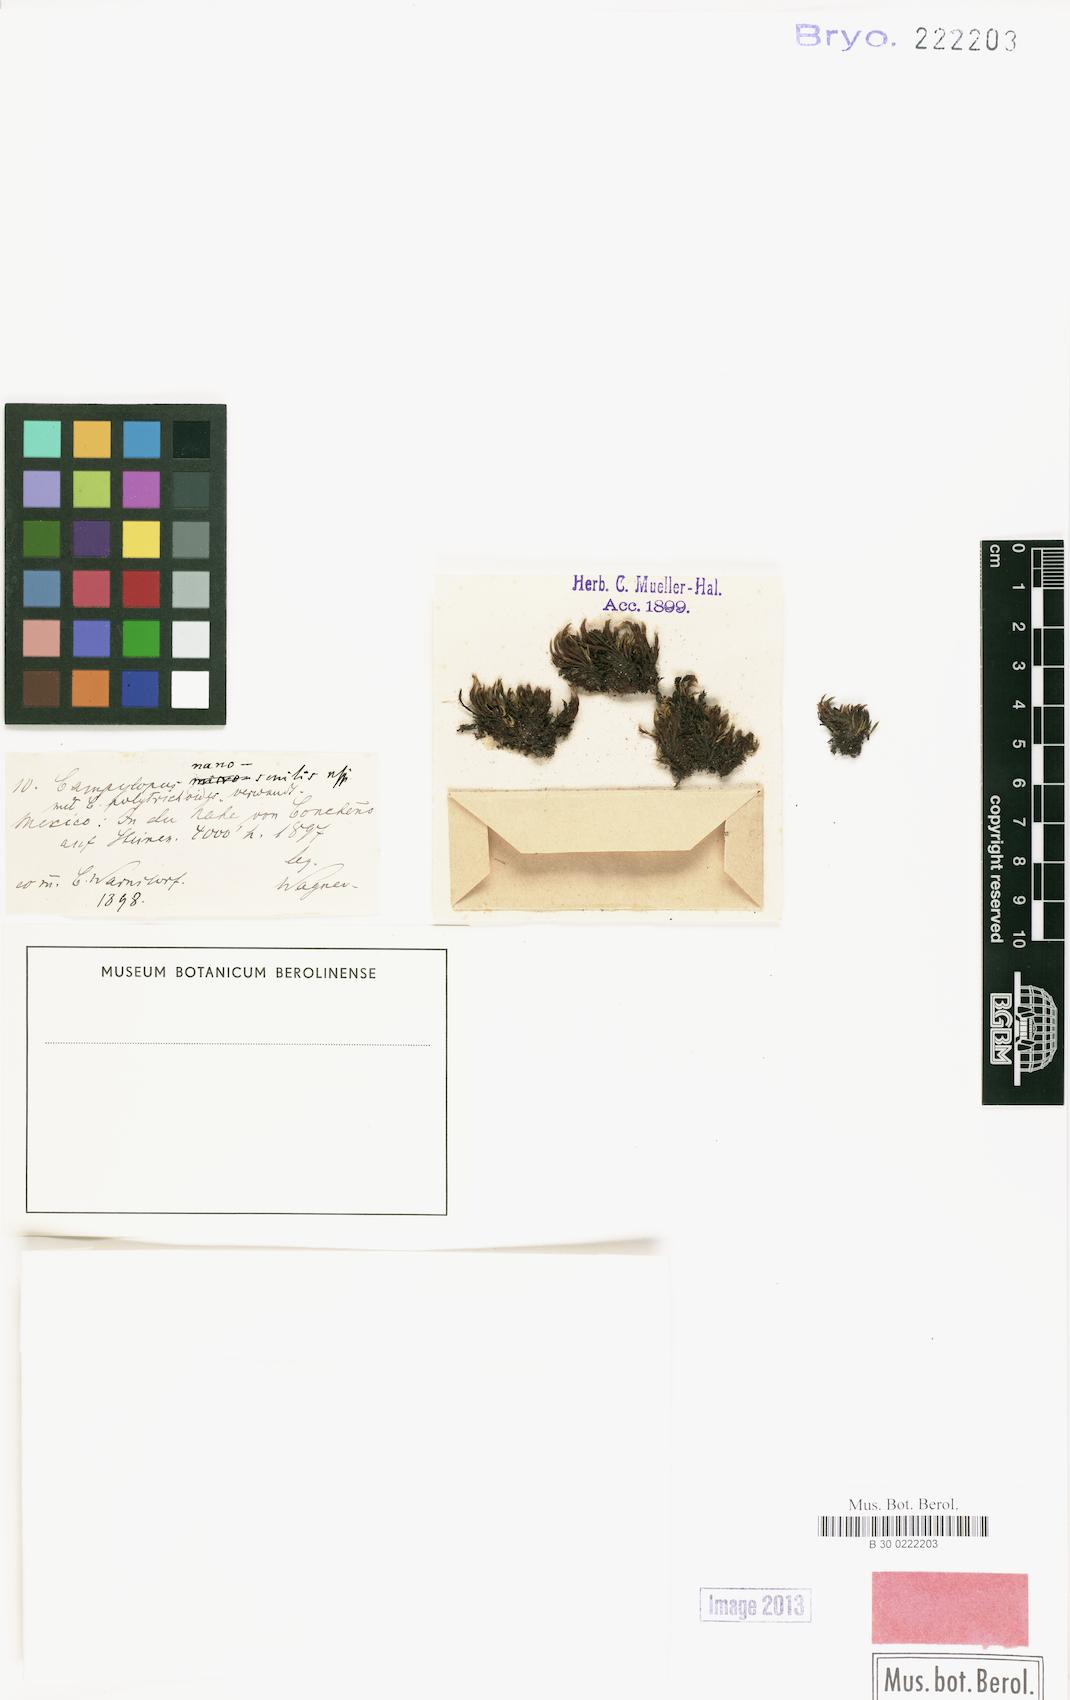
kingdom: Plantae
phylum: Bryophyta
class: Bryopsida
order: Dicranales
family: Dicranaceae
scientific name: Dicranaceae
